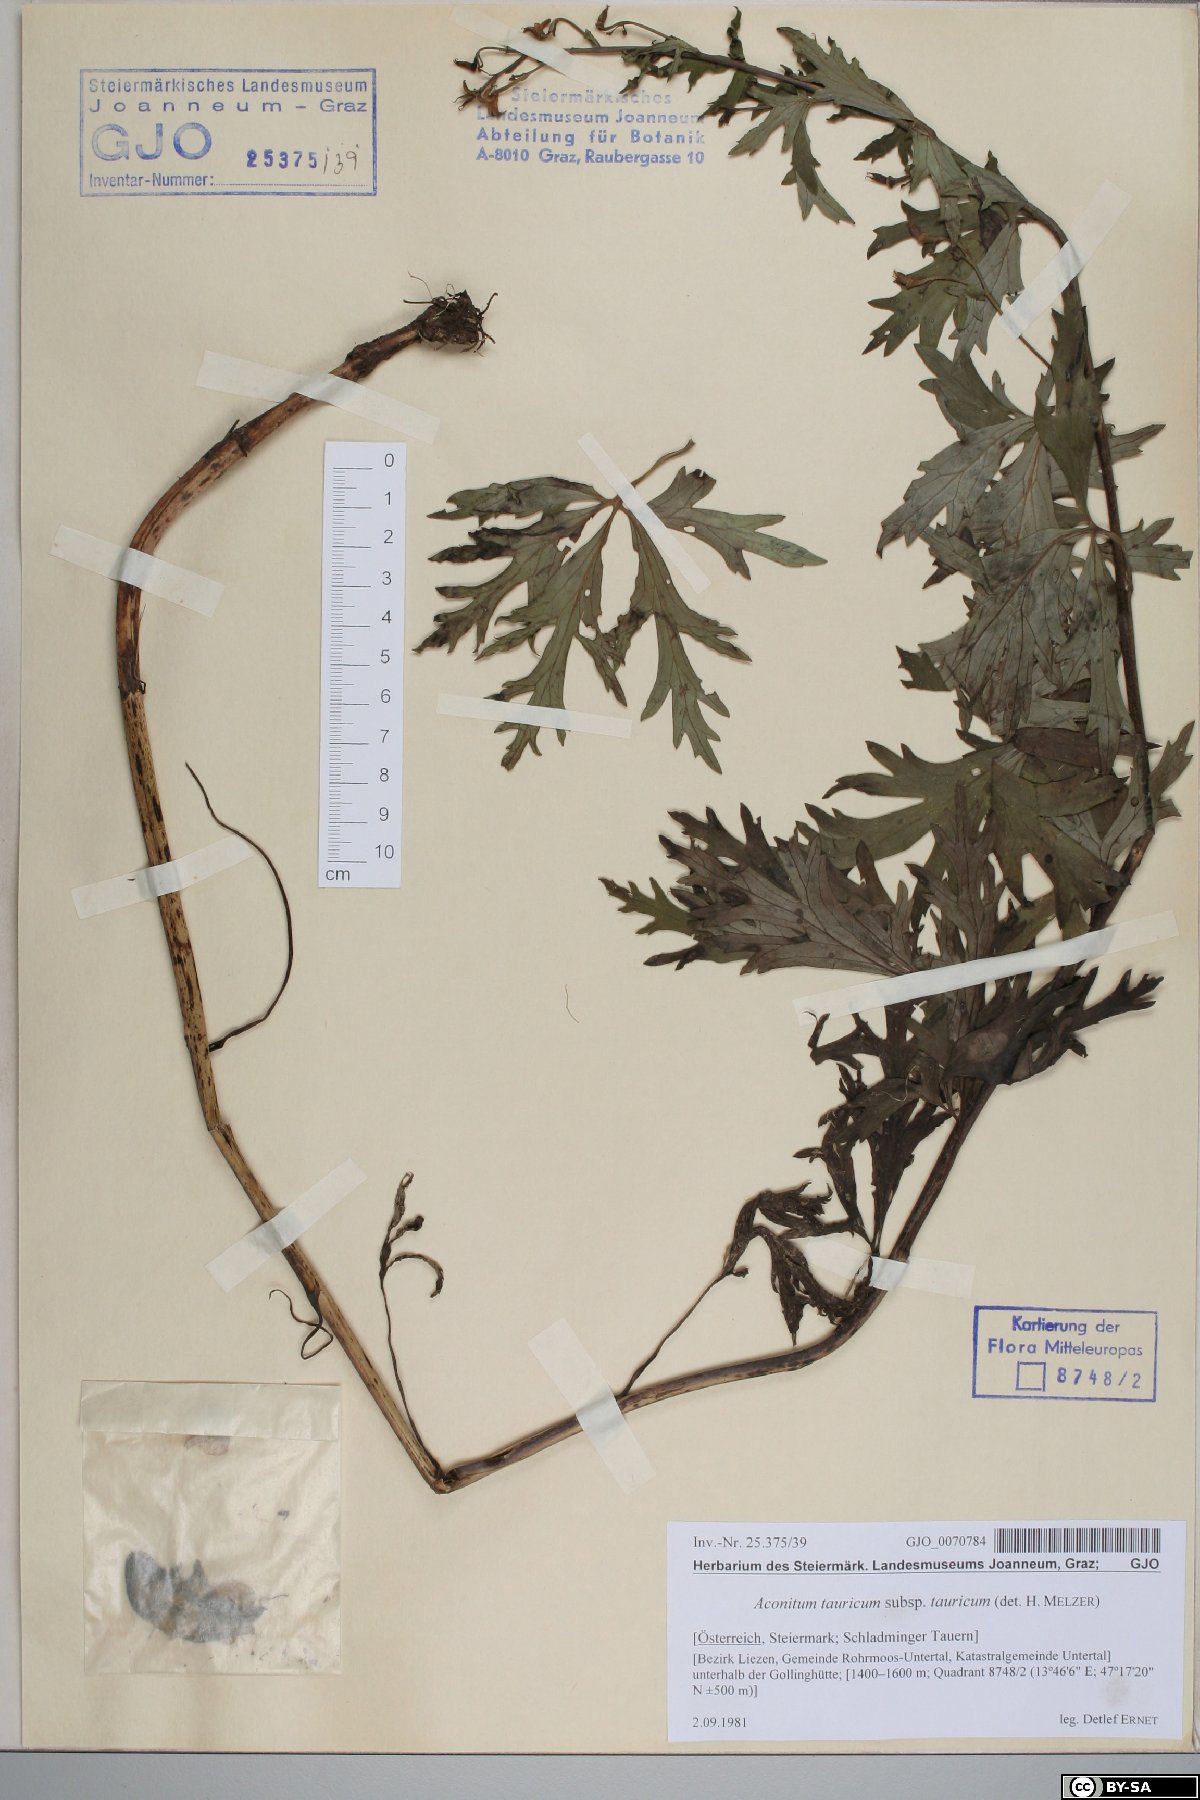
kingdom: Plantae
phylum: Tracheophyta
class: Magnoliopsida
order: Ranunculales
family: Ranunculaceae
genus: Aconitum
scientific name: Aconitum tauricum
